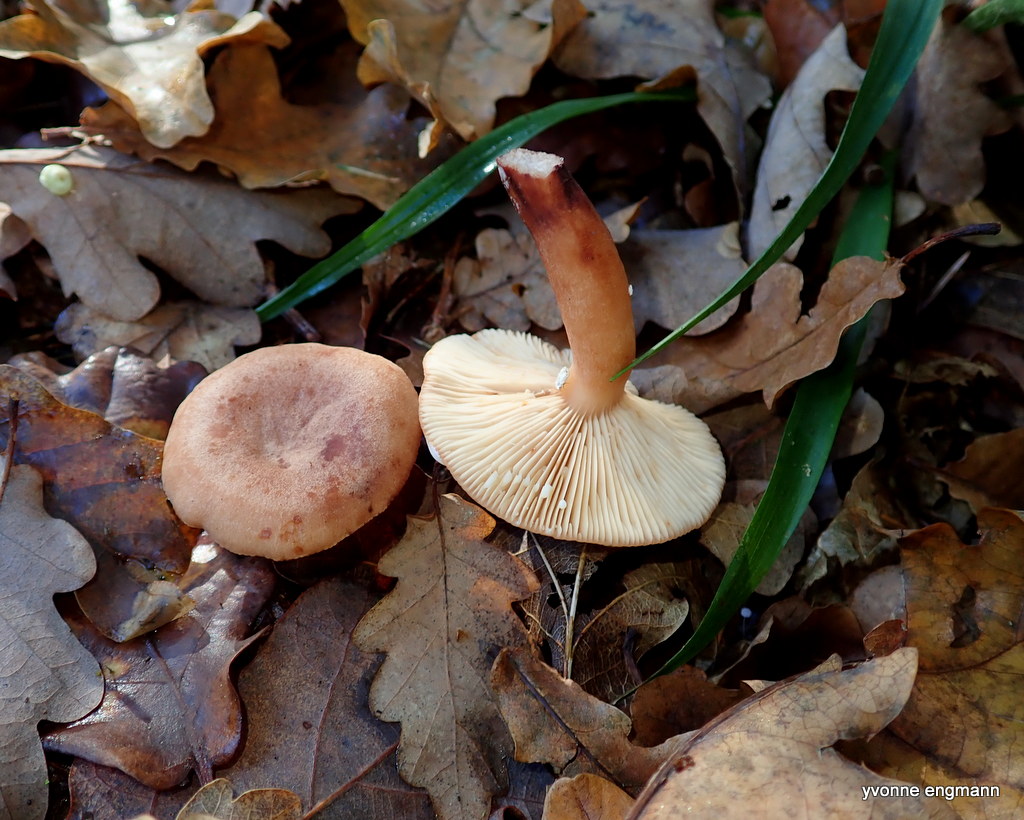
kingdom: Fungi
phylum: Basidiomycota
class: Agaricomycetes
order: Russulales
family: Russulaceae
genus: Lactarius
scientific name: Lactarius quietus
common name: ege-mælkehat
